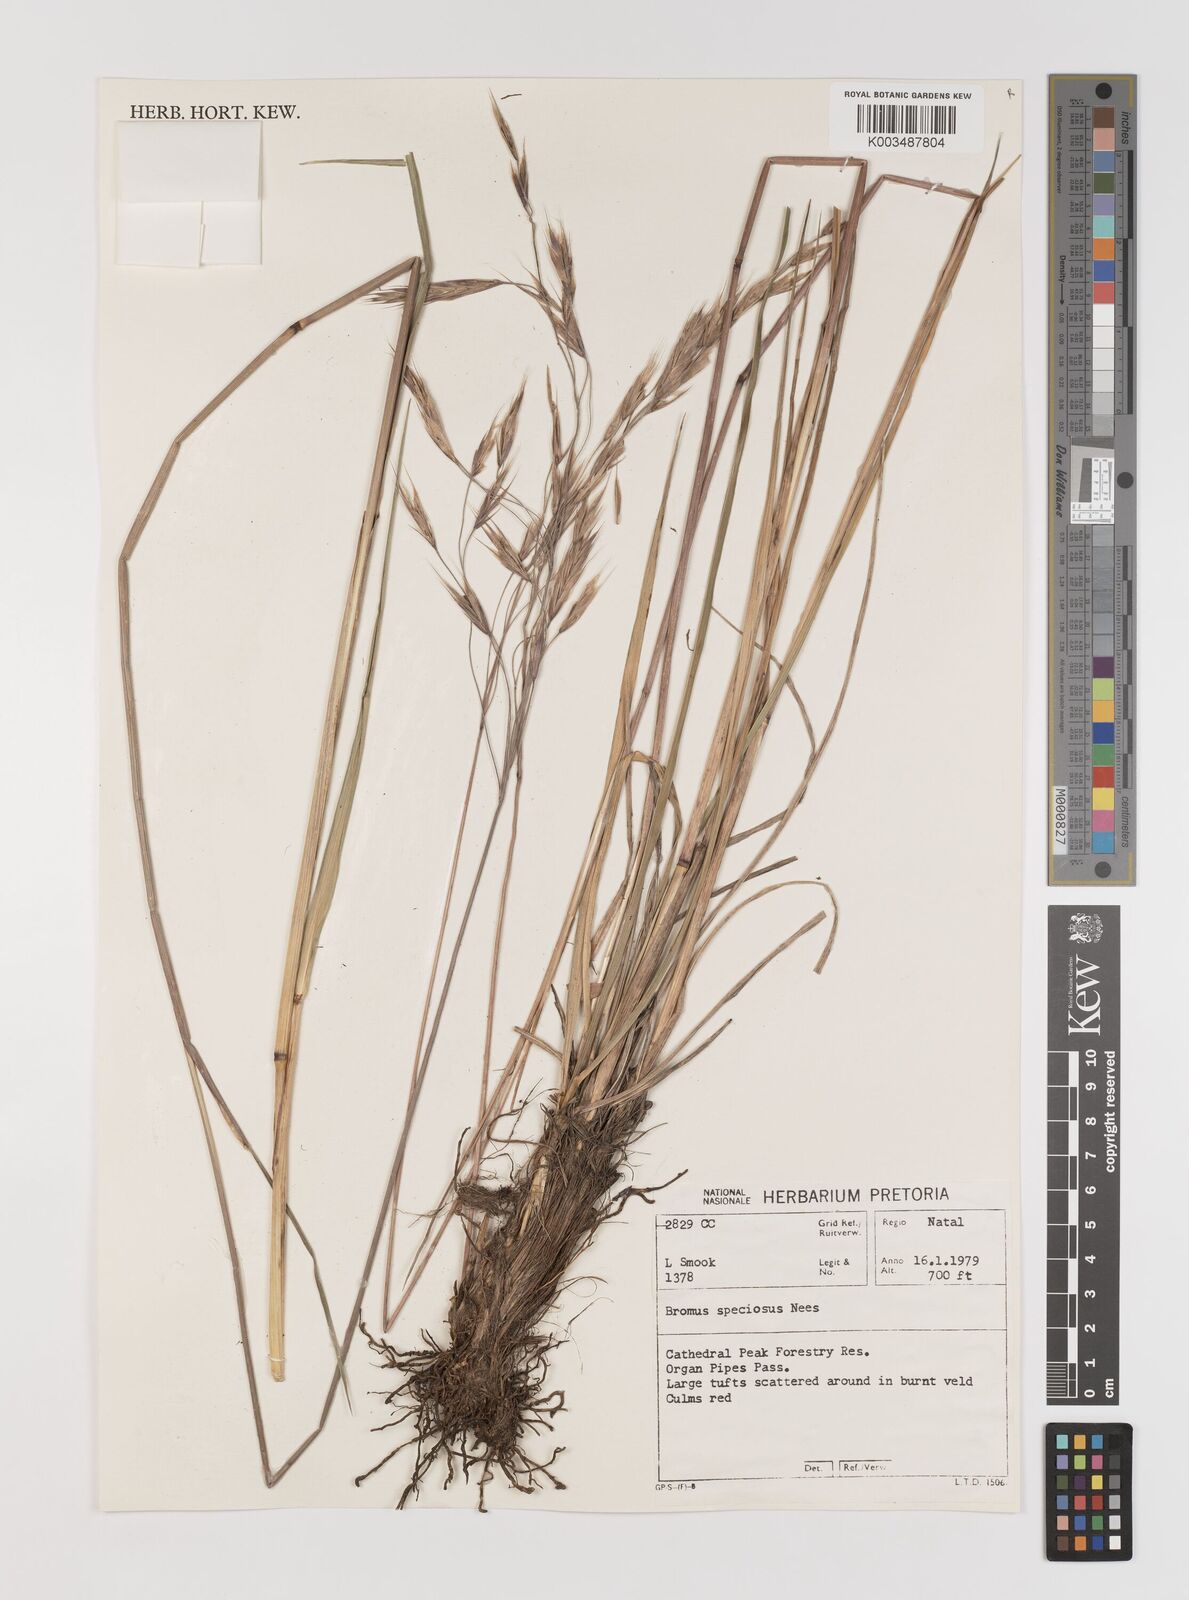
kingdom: Plantae
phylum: Tracheophyta
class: Liliopsida
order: Poales
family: Poaceae
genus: Bromus
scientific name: Bromus speciosus
